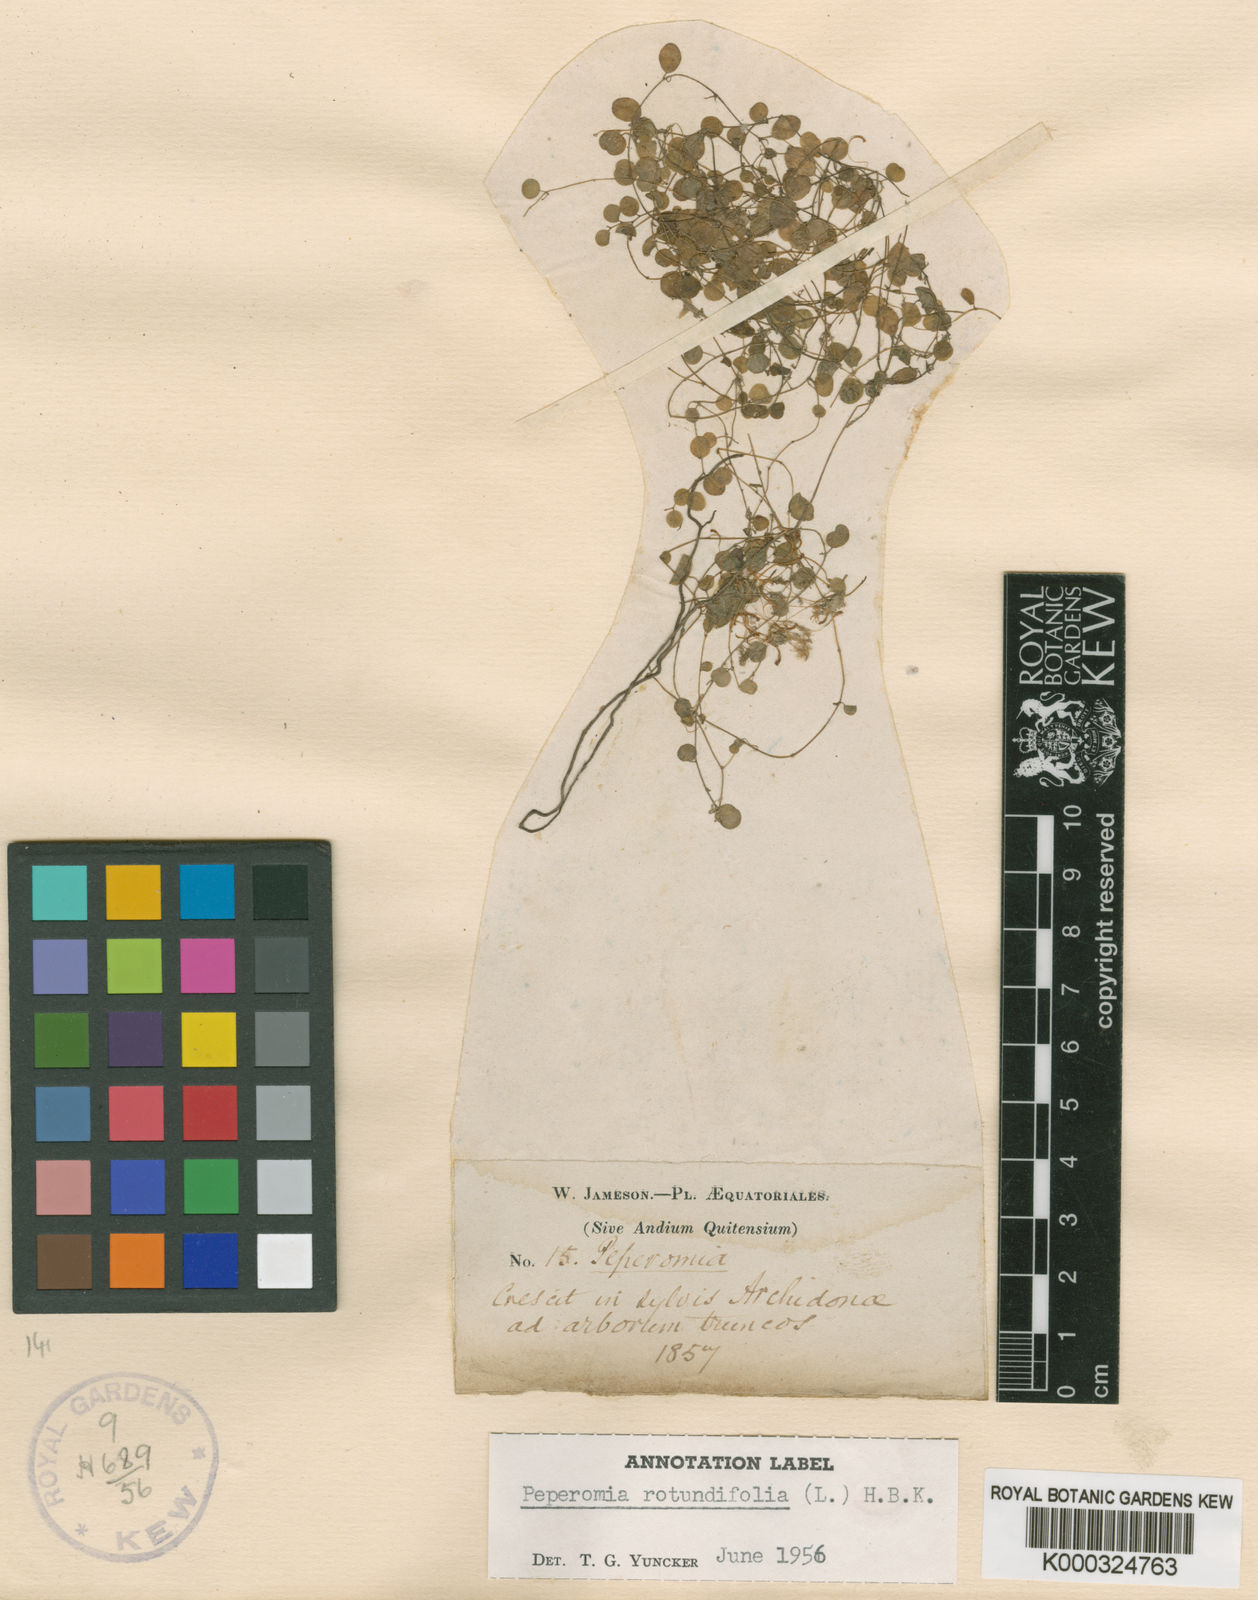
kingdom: Plantae
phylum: Tracheophyta
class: Magnoliopsida
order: Piperales
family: Piperaceae
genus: Peperomia
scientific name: Peperomia rotundifolia
